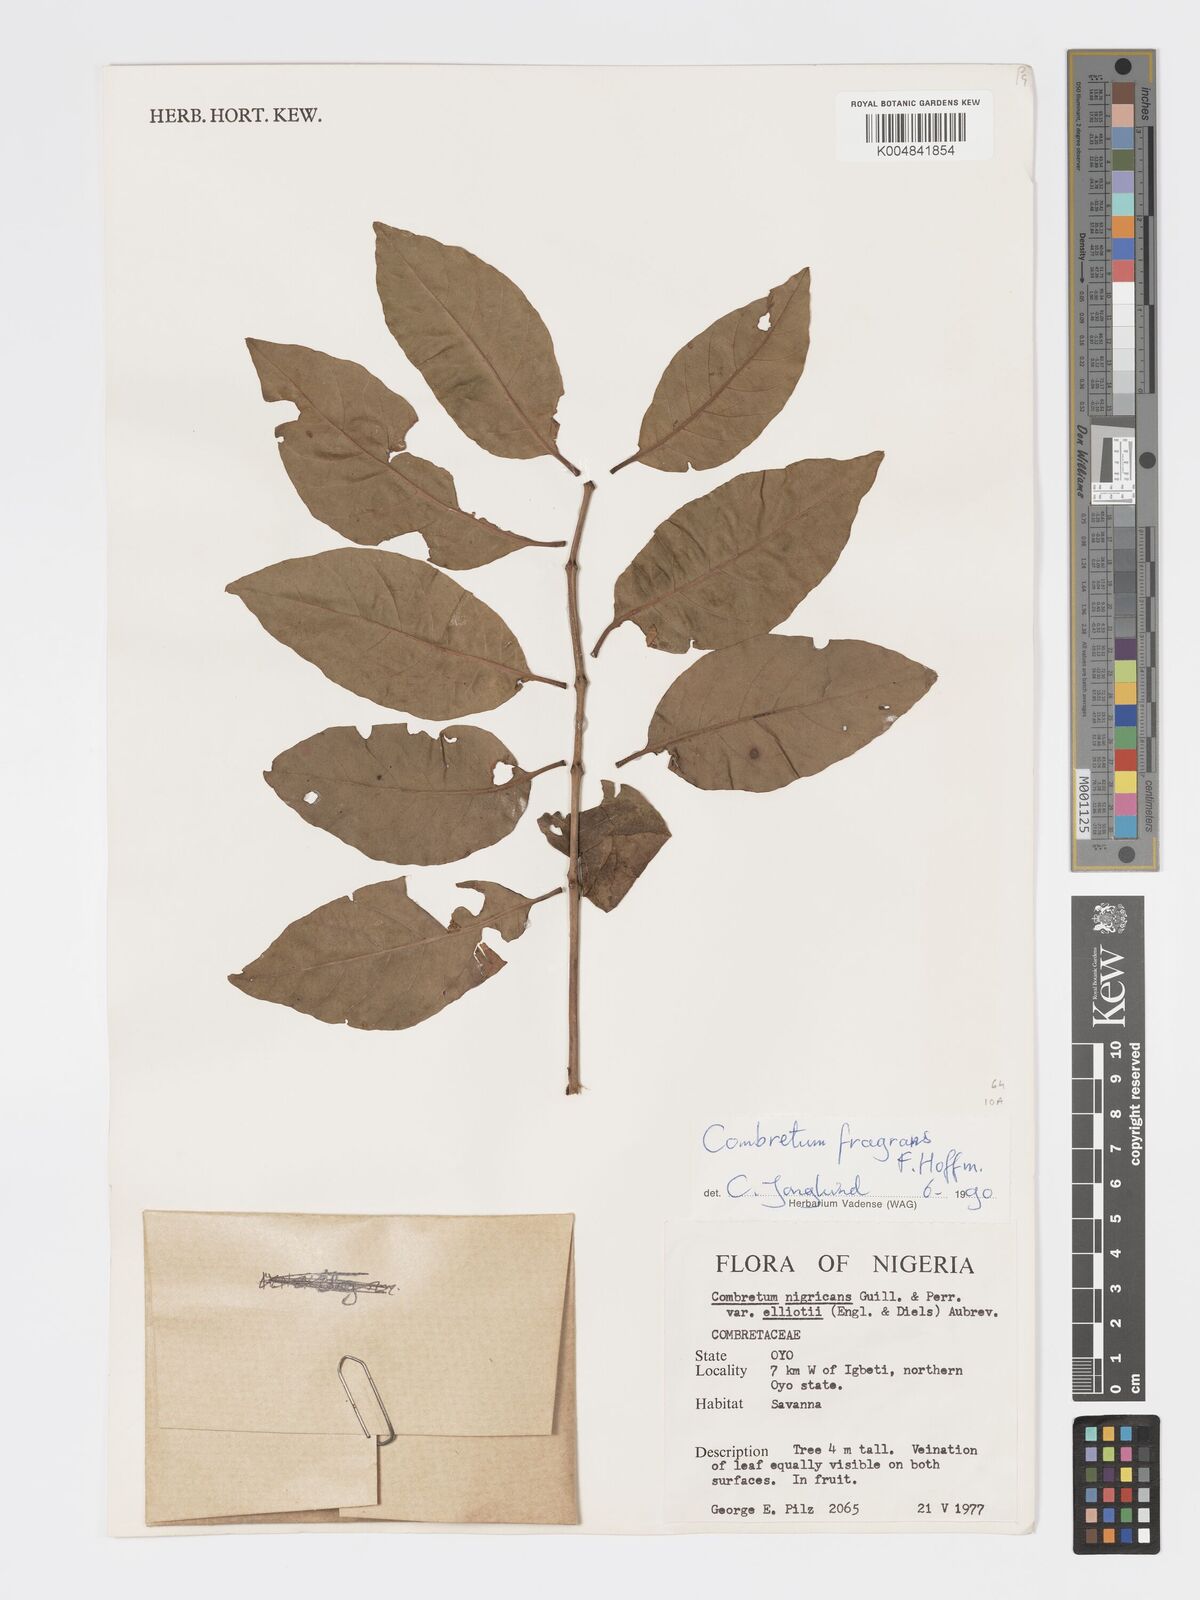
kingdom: Plantae
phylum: Tracheophyta
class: Magnoliopsida
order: Myrtales
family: Combretaceae
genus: Combretum
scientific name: Combretum adenogonium
